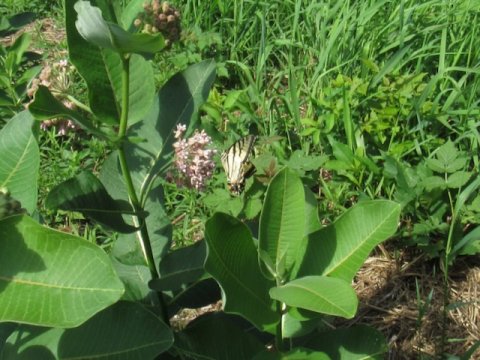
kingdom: Animalia
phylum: Arthropoda
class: Insecta
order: Lepidoptera
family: Papilionidae
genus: Pterourus
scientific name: Pterourus
